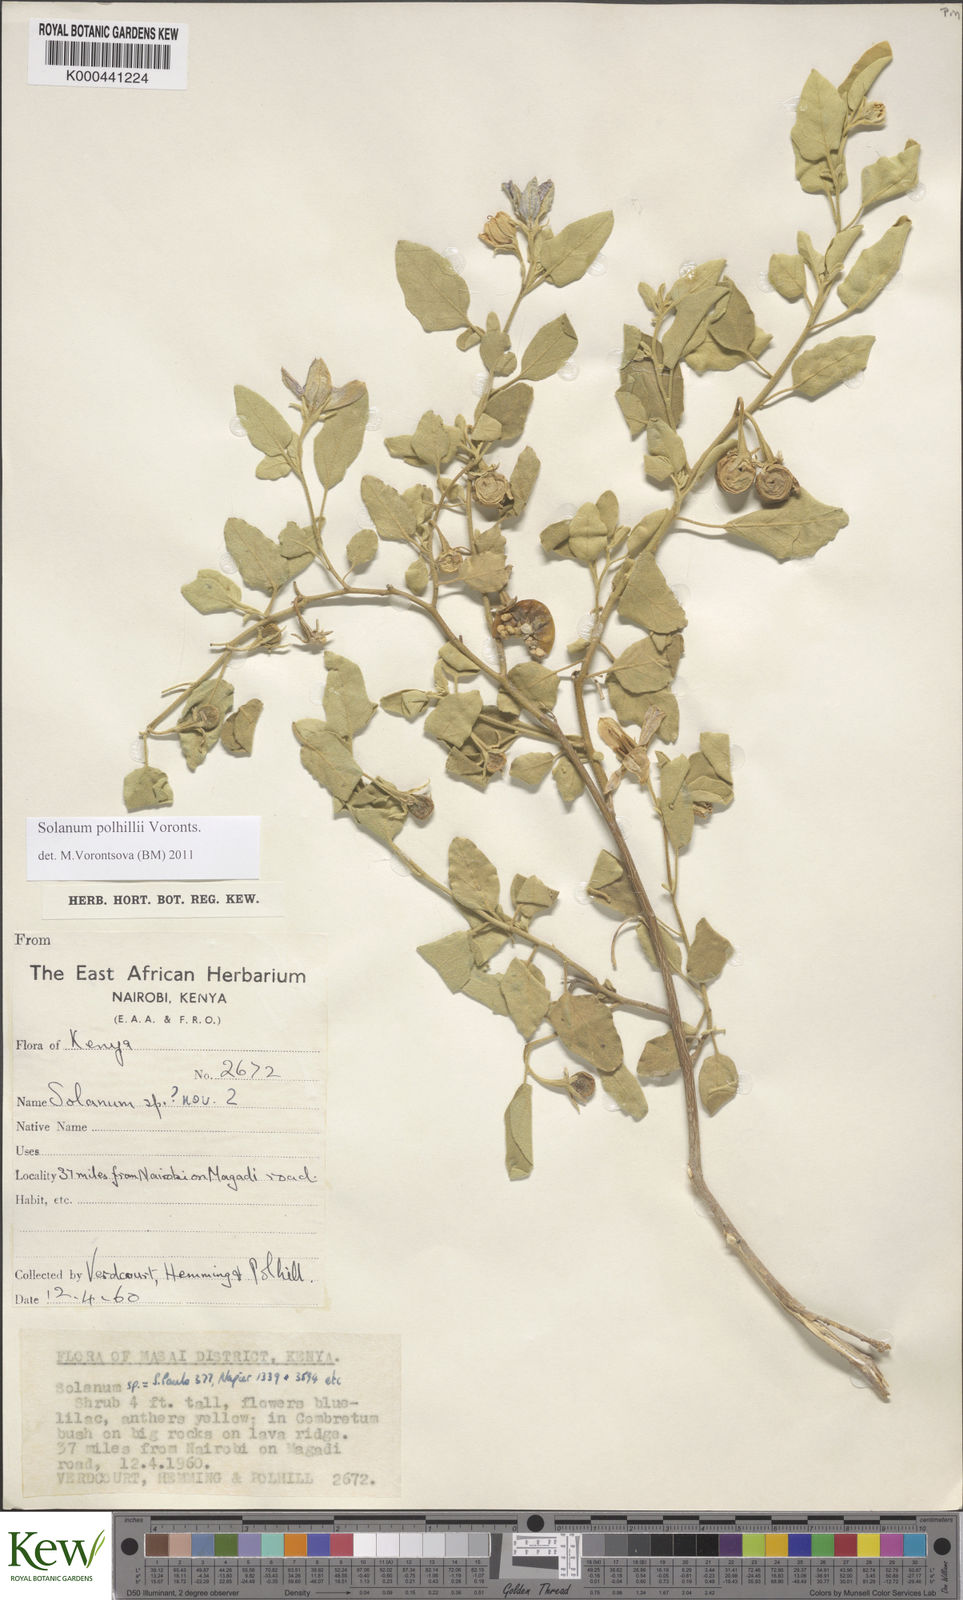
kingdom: Plantae
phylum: Tracheophyta
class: Magnoliopsida
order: Solanales
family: Solanaceae
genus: Solanum
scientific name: Solanum polhillii
